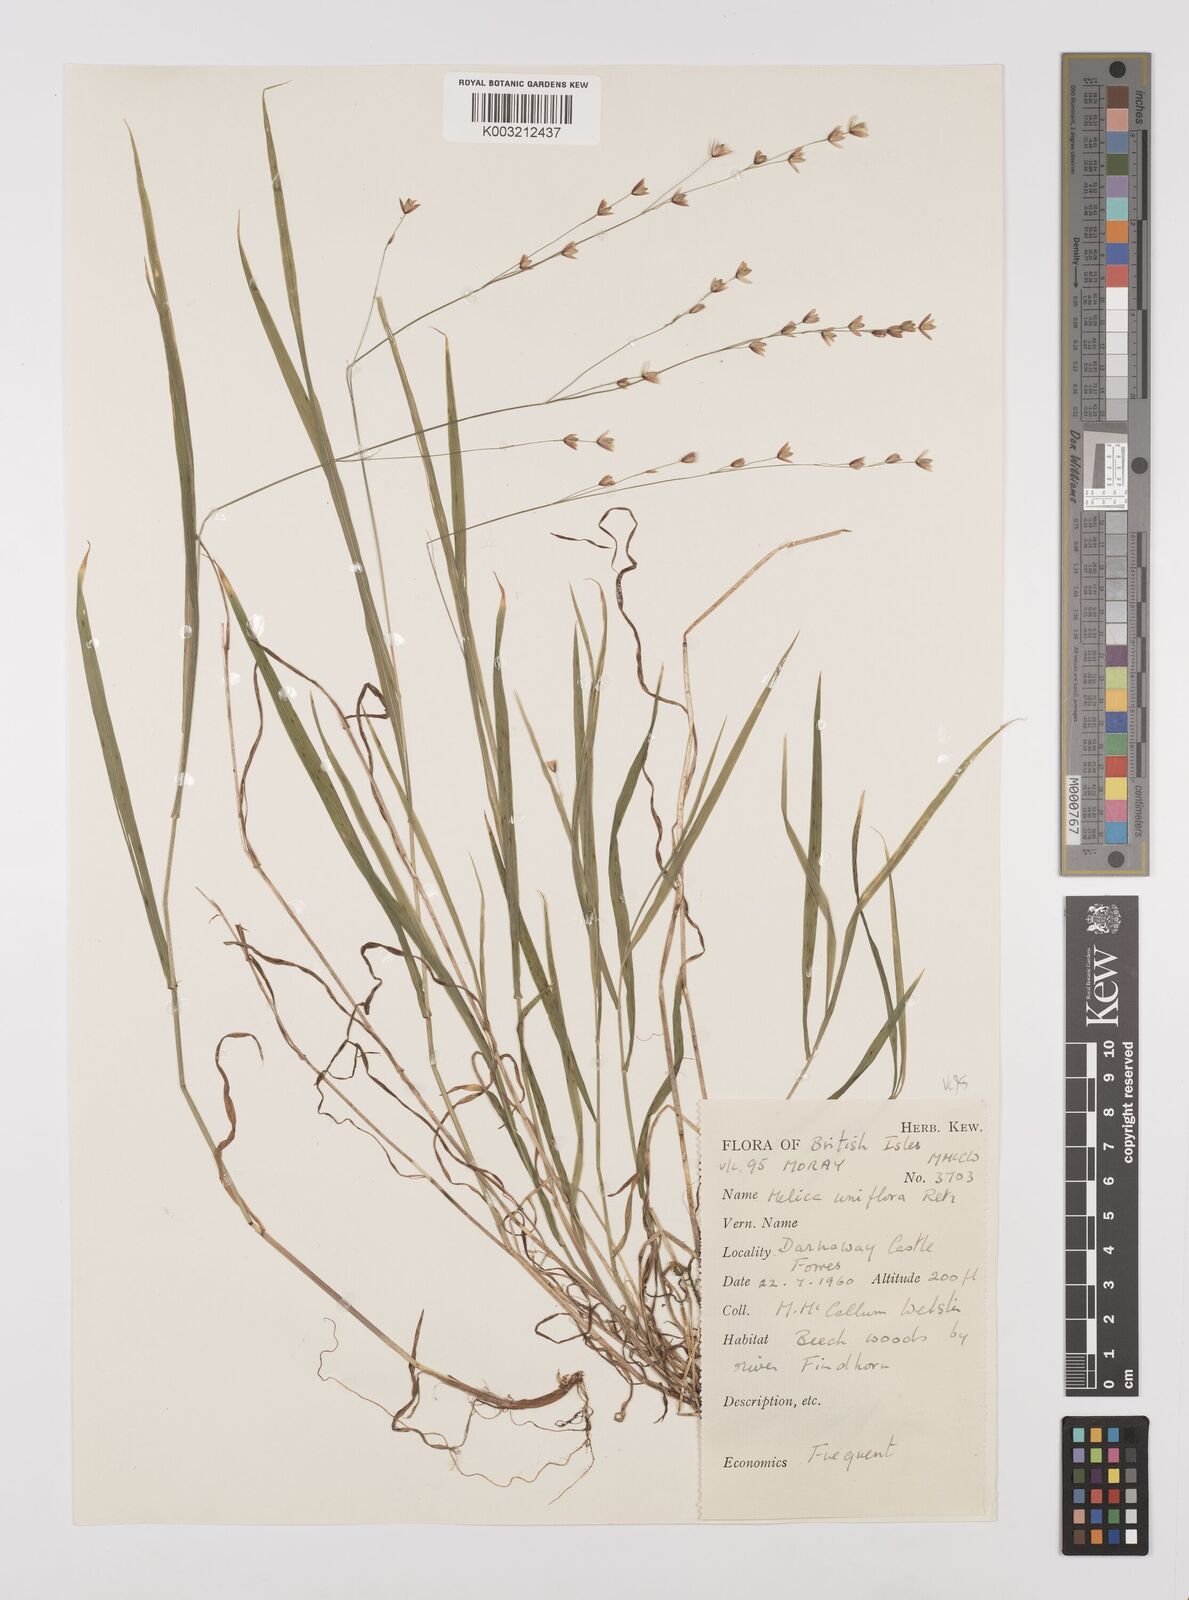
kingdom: Plantae
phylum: Tracheophyta
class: Liliopsida
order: Poales
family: Poaceae
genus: Melica
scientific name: Melica uniflora
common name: Wood melick
